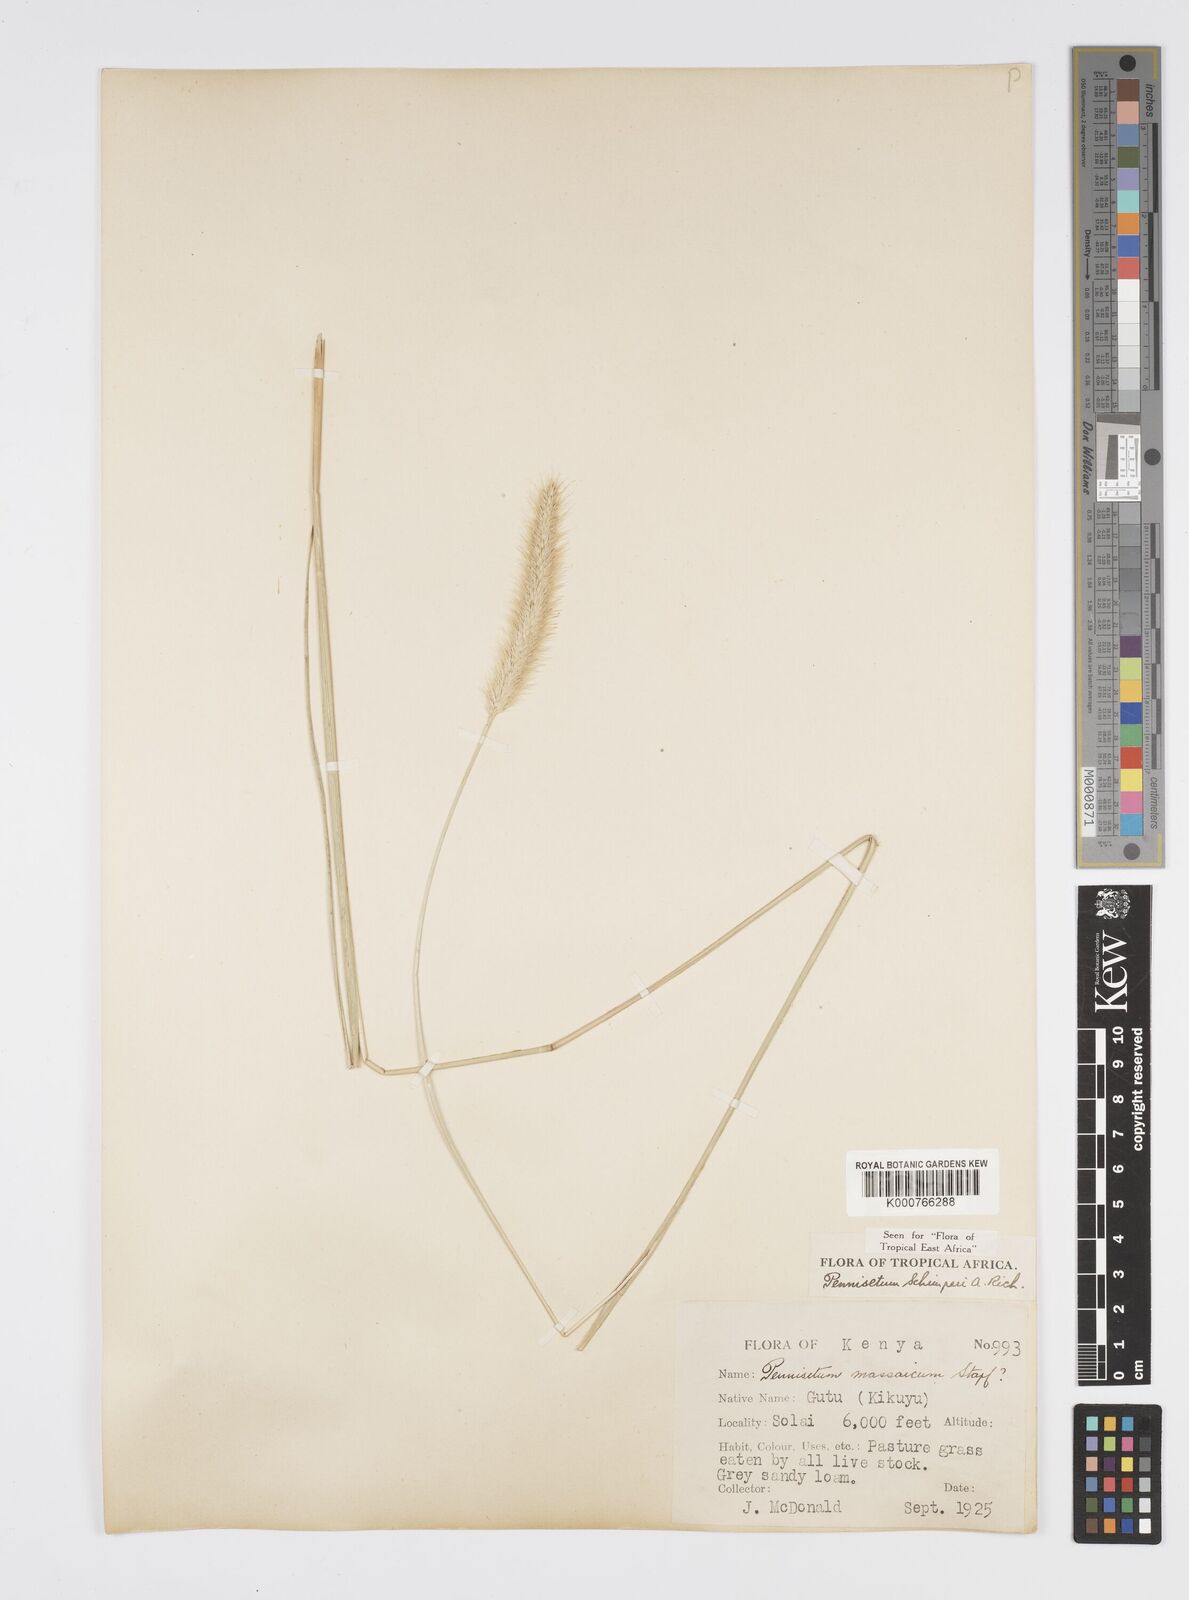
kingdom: Plantae
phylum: Tracheophyta
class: Liliopsida
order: Poales
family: Poaceae
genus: Cenchrus
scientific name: Cenchrus sphacelatus
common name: Bulgras
